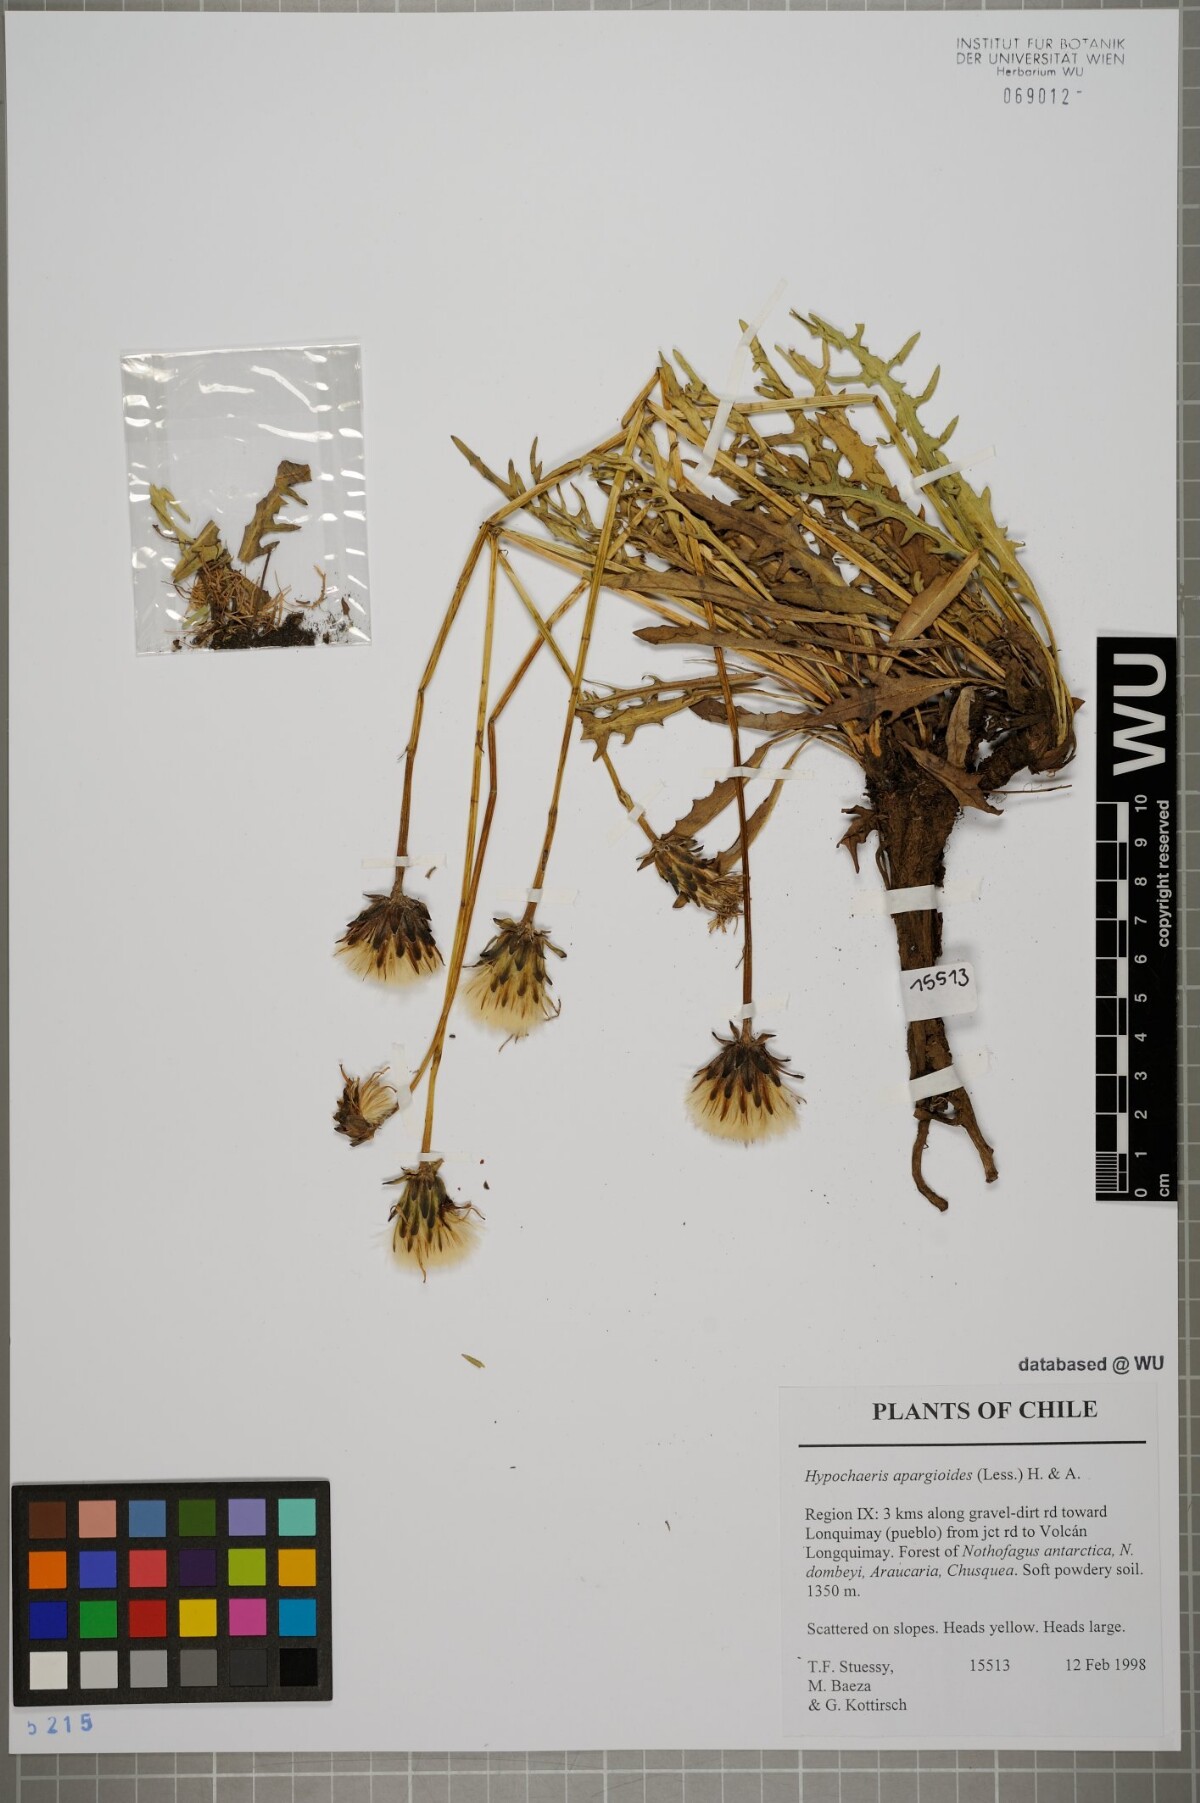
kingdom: Plantae
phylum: Tracheophyta
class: Magnoliopsida
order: Asterales
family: Asteraceae
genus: Hypochaeris
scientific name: Hypochaeris apargioides
